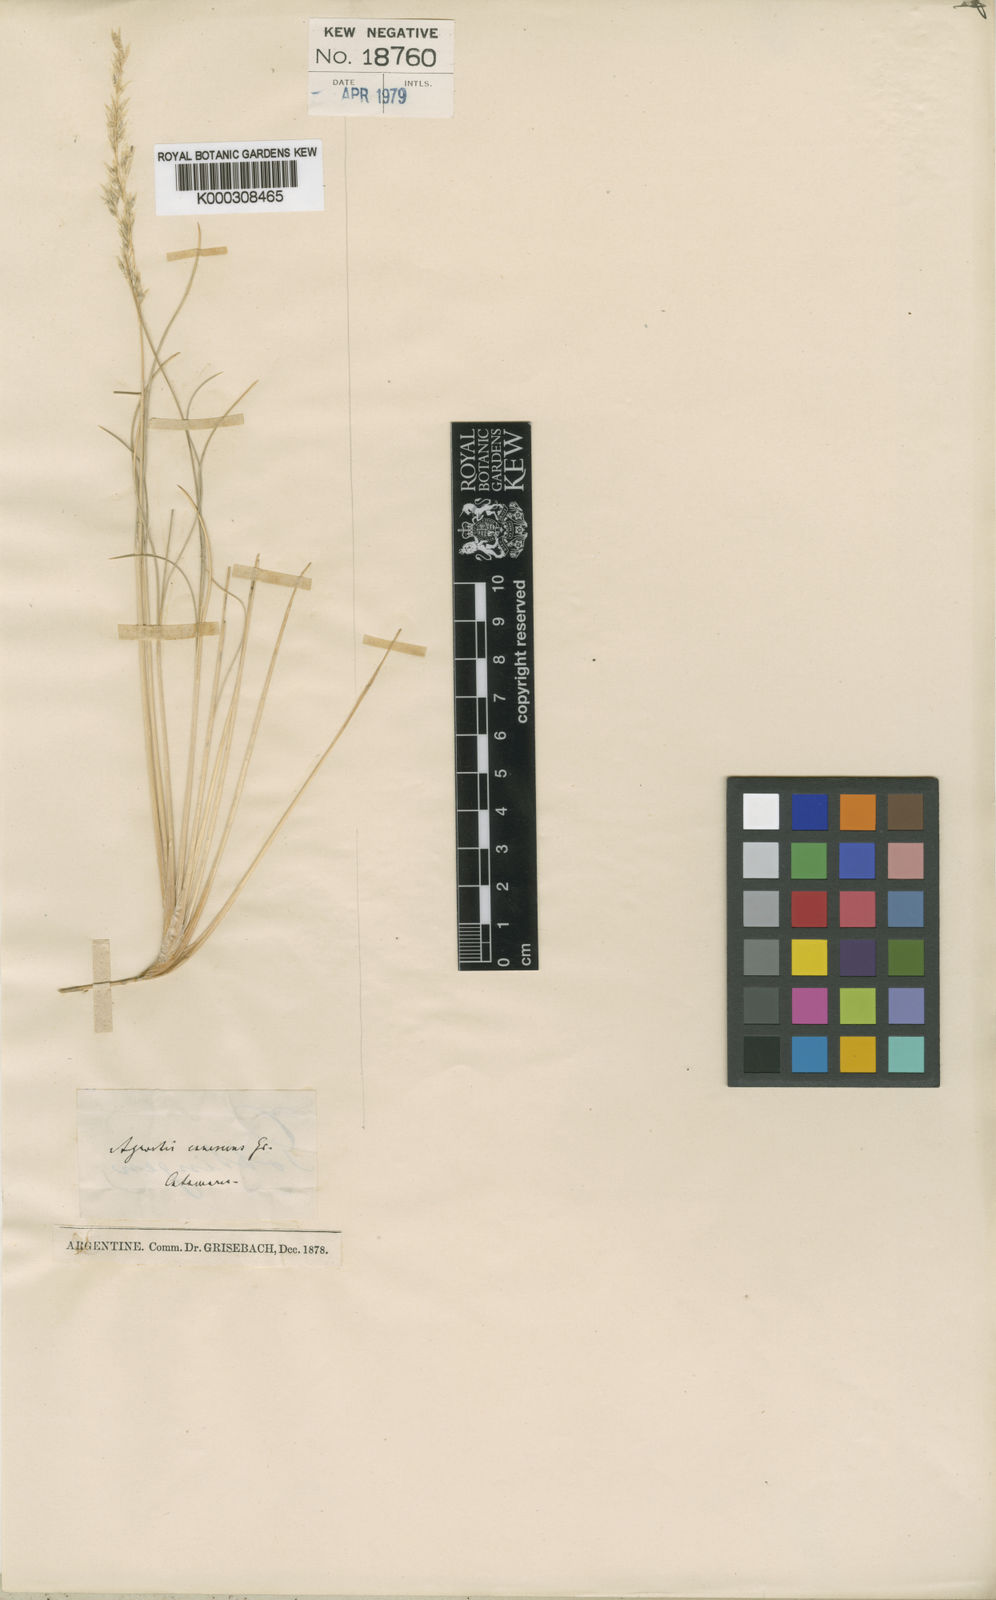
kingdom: Plantae
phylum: Tracheophyta
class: Liliopsida
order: Poales
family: Poaceae
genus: Cinnagrostis
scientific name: Cinnagrostis velutina
